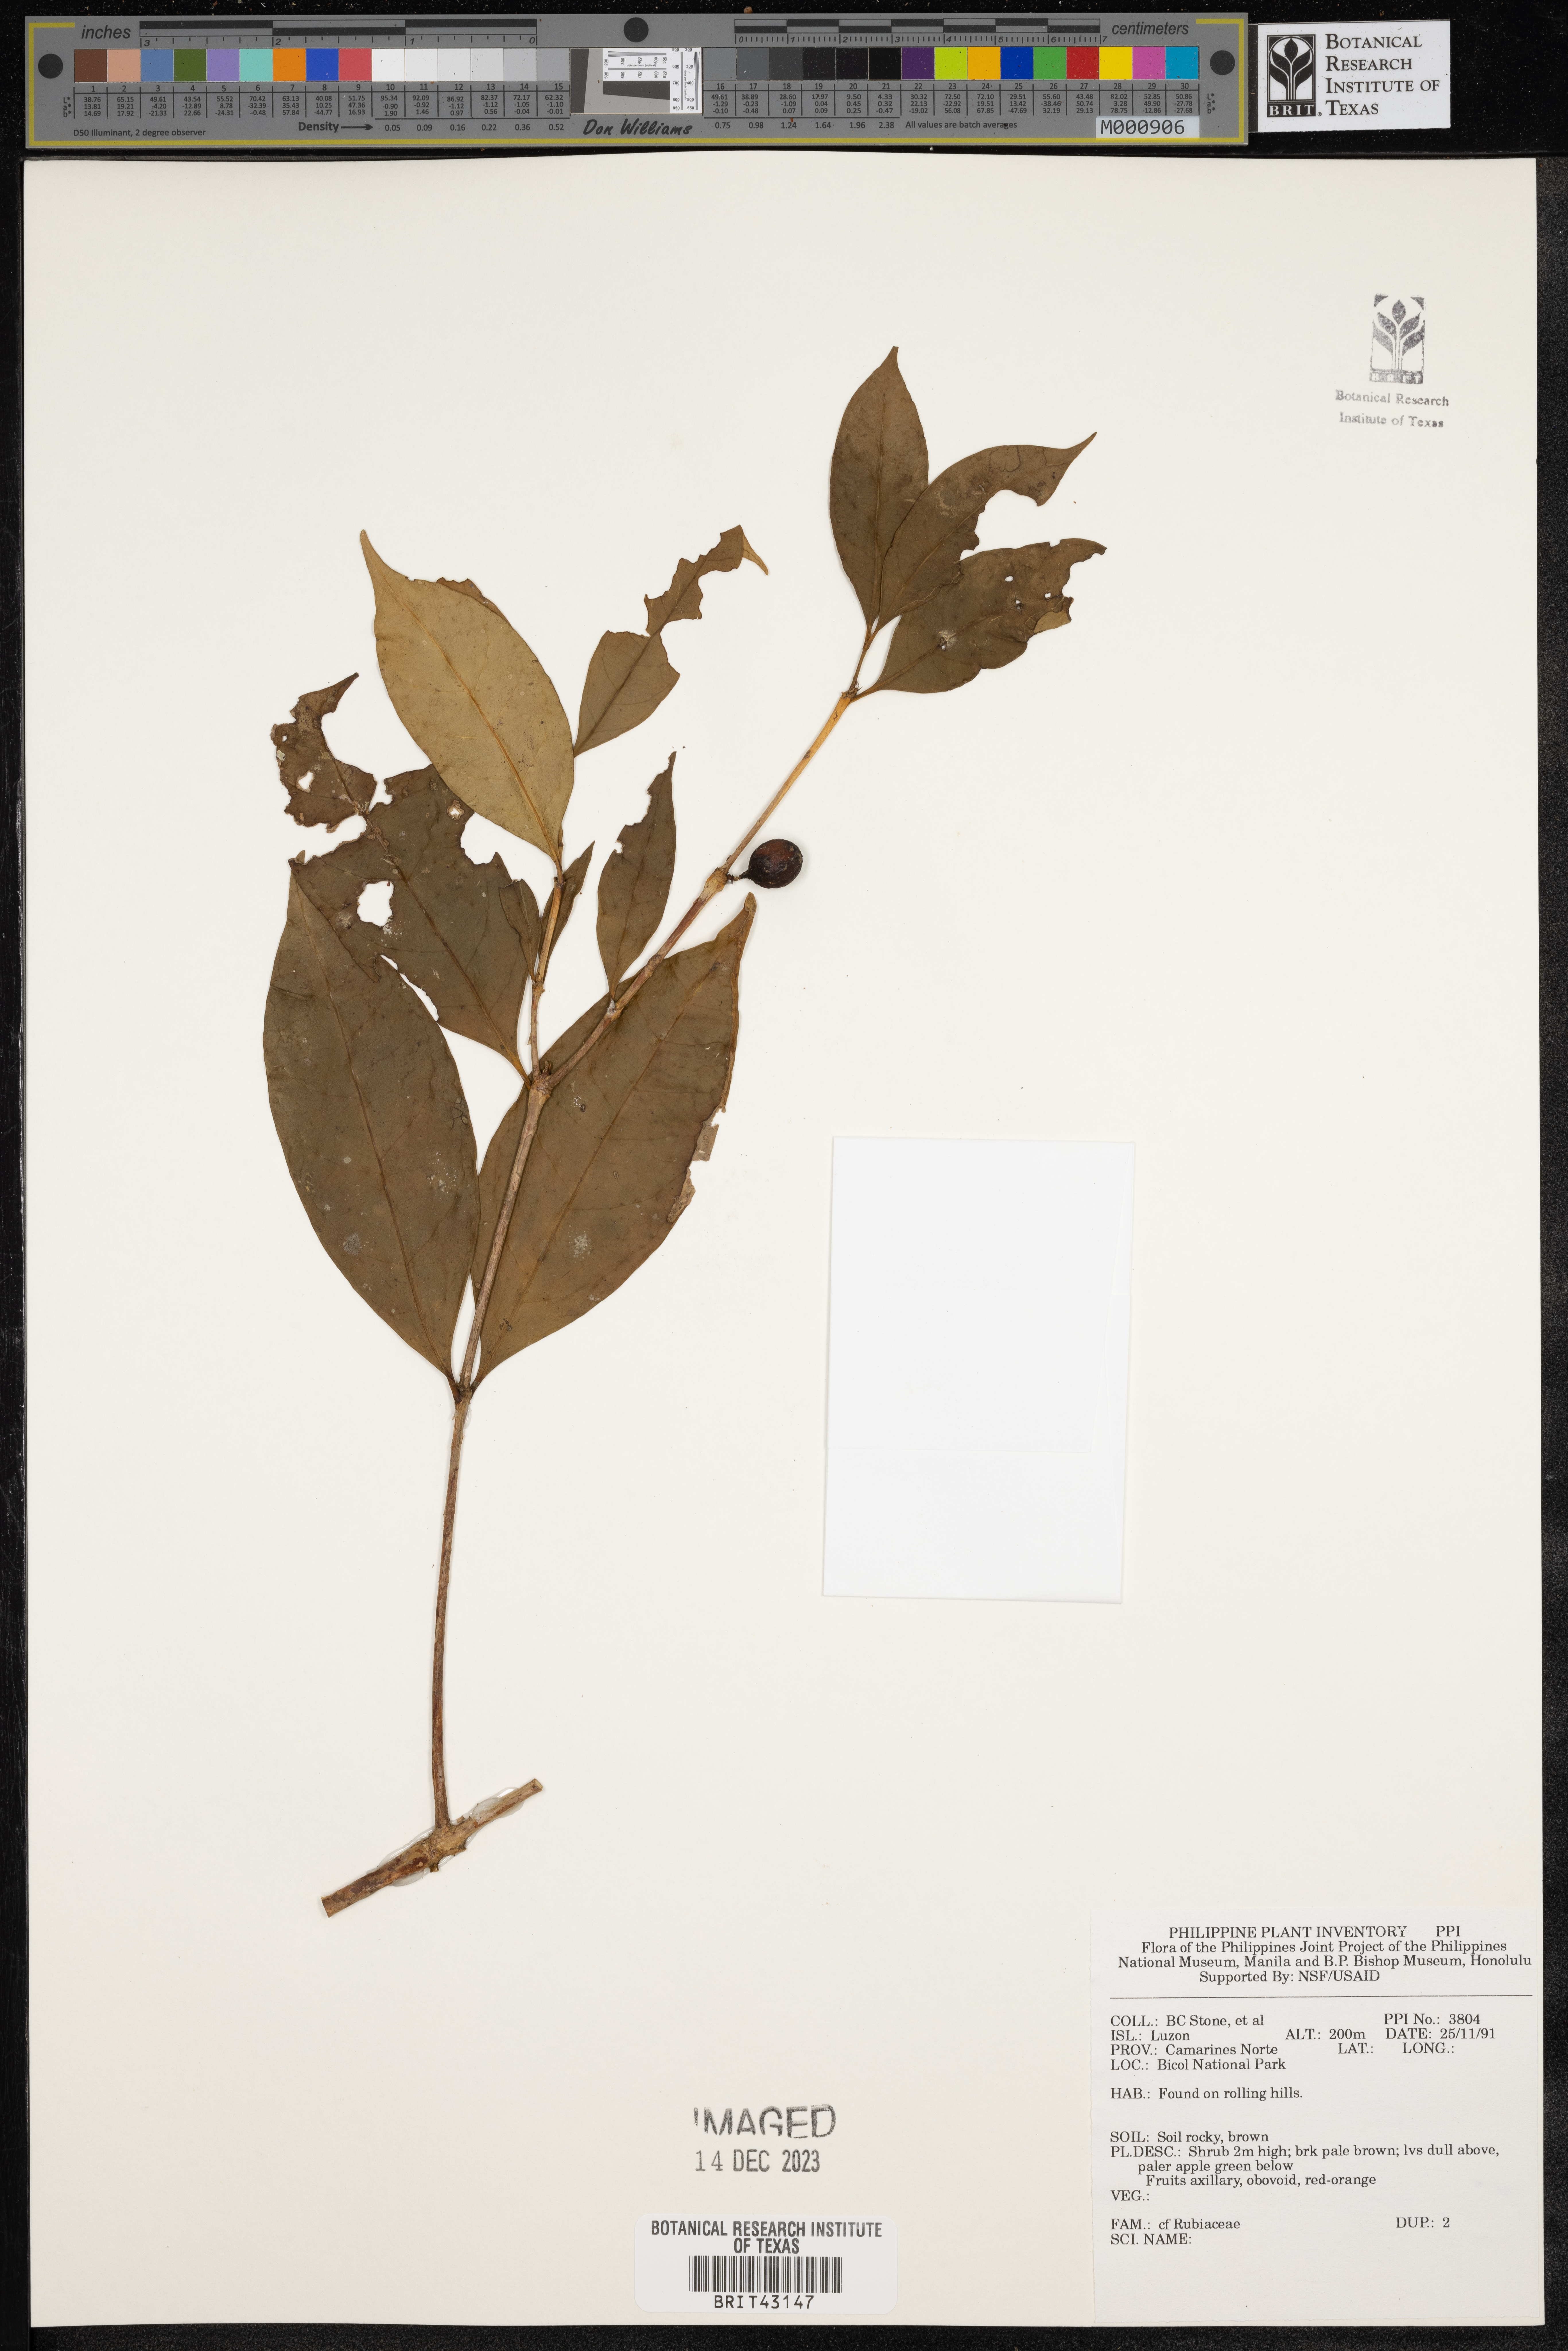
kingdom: Plantae
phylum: Tracheophyta
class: Magnoliopsida
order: Gentianales
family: Rubiaceae
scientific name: Rubiaceae
